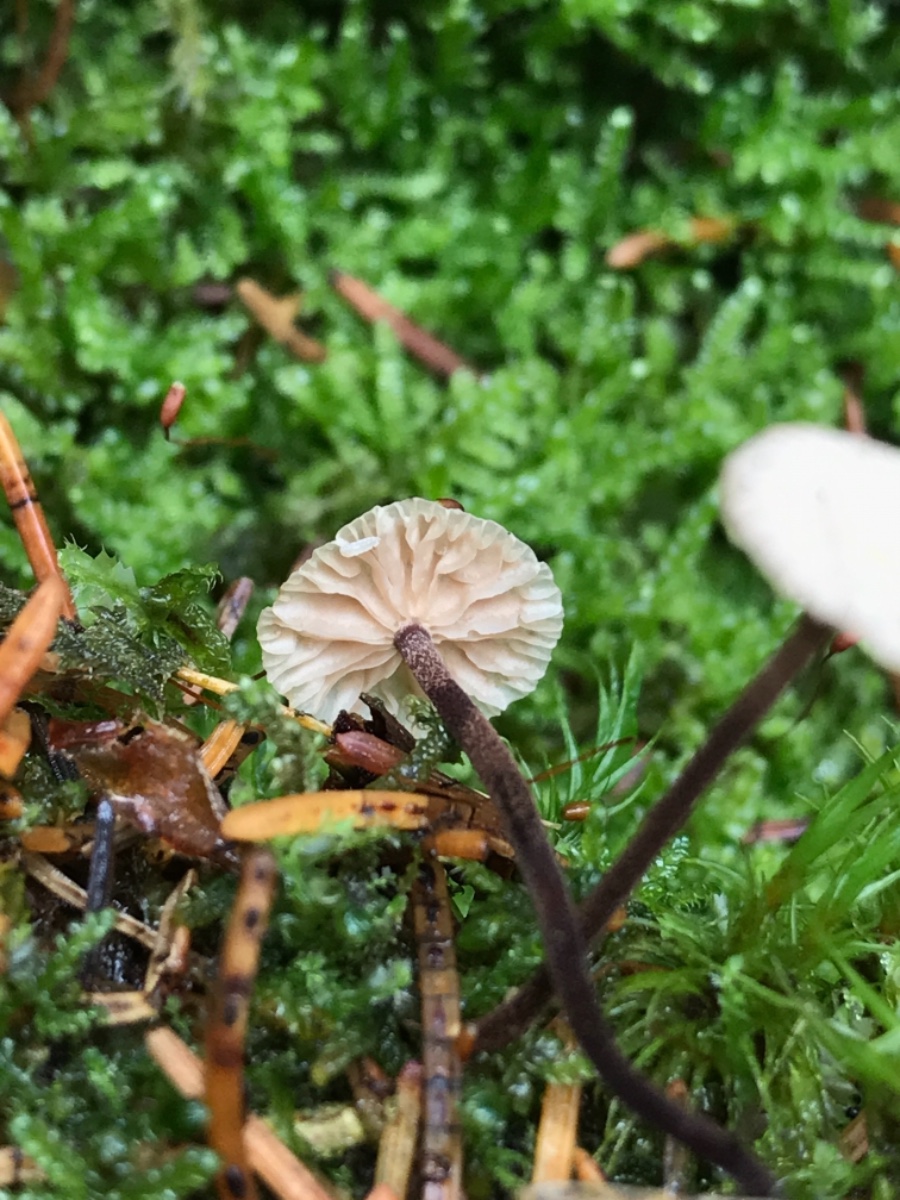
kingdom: Fungi
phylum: Basidiomycota
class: Agaricomycetes
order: Agaricales
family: Omphalotaceae
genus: Paragymnopus
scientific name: Paragymnopus perforans
